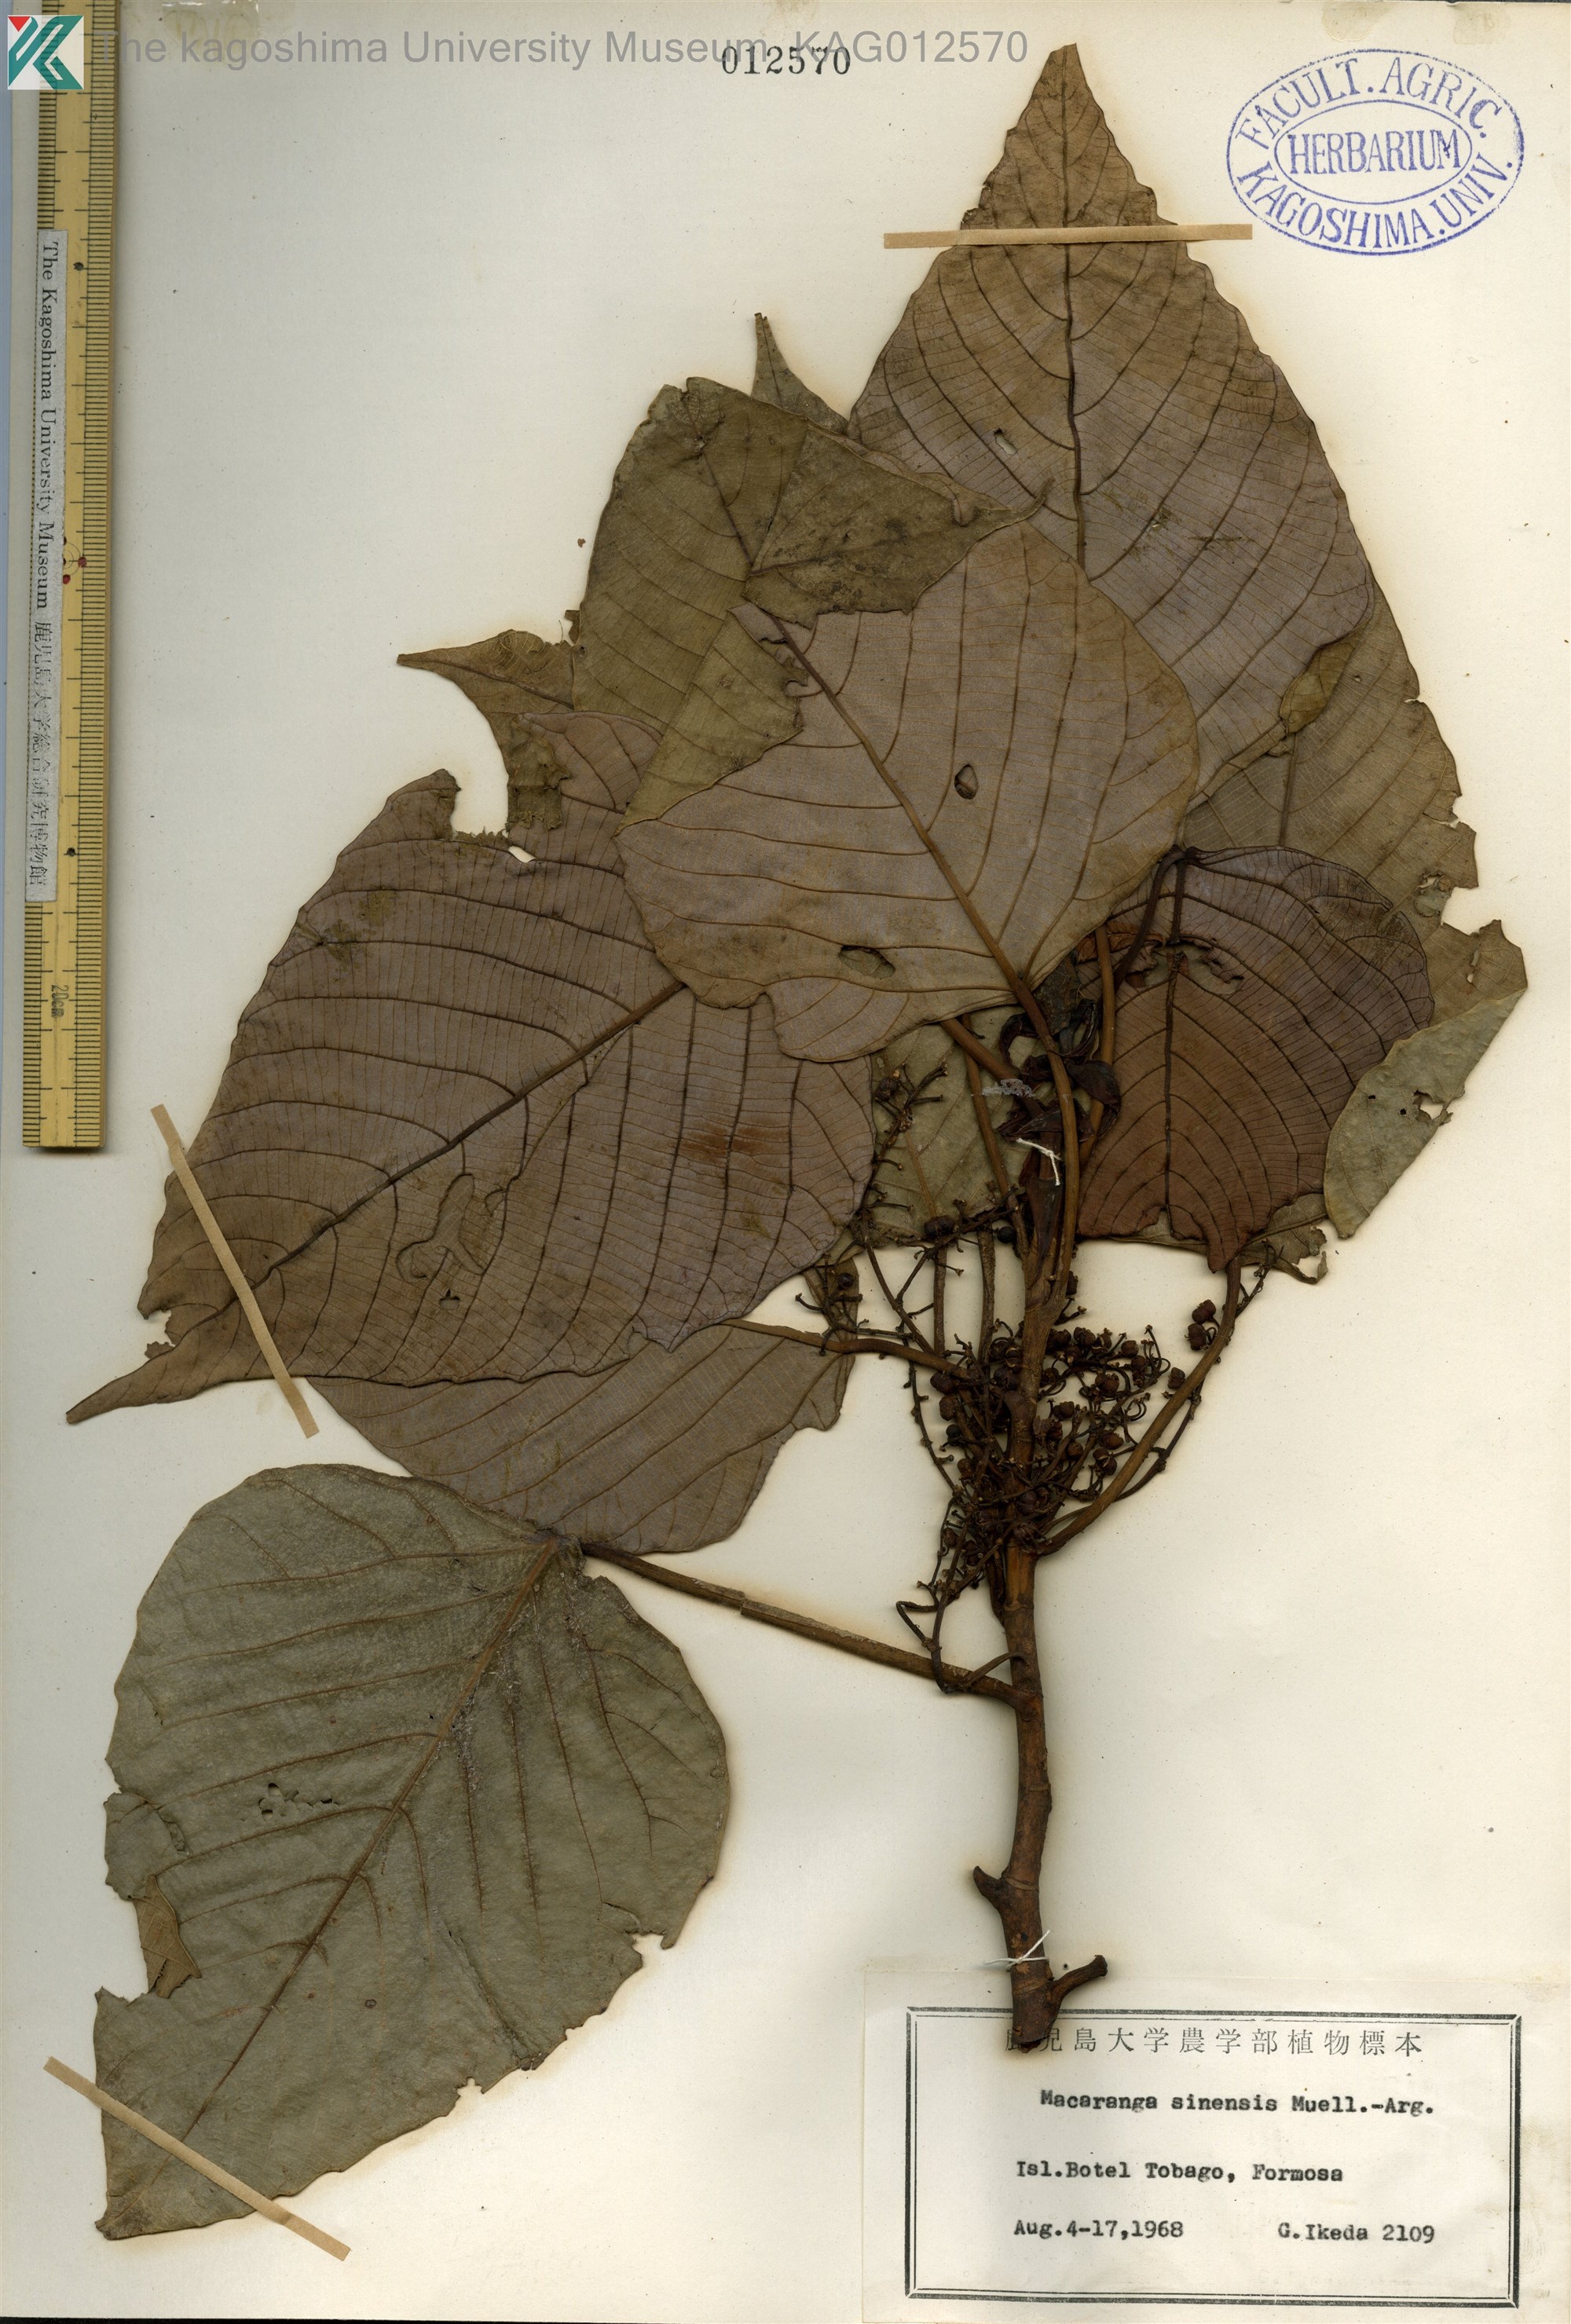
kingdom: Plantae
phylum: Tracheophyta
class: Magnoliopsida
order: Malpighiales
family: Euphorbiaceae
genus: Macaranga
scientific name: Macaranga sinensis
